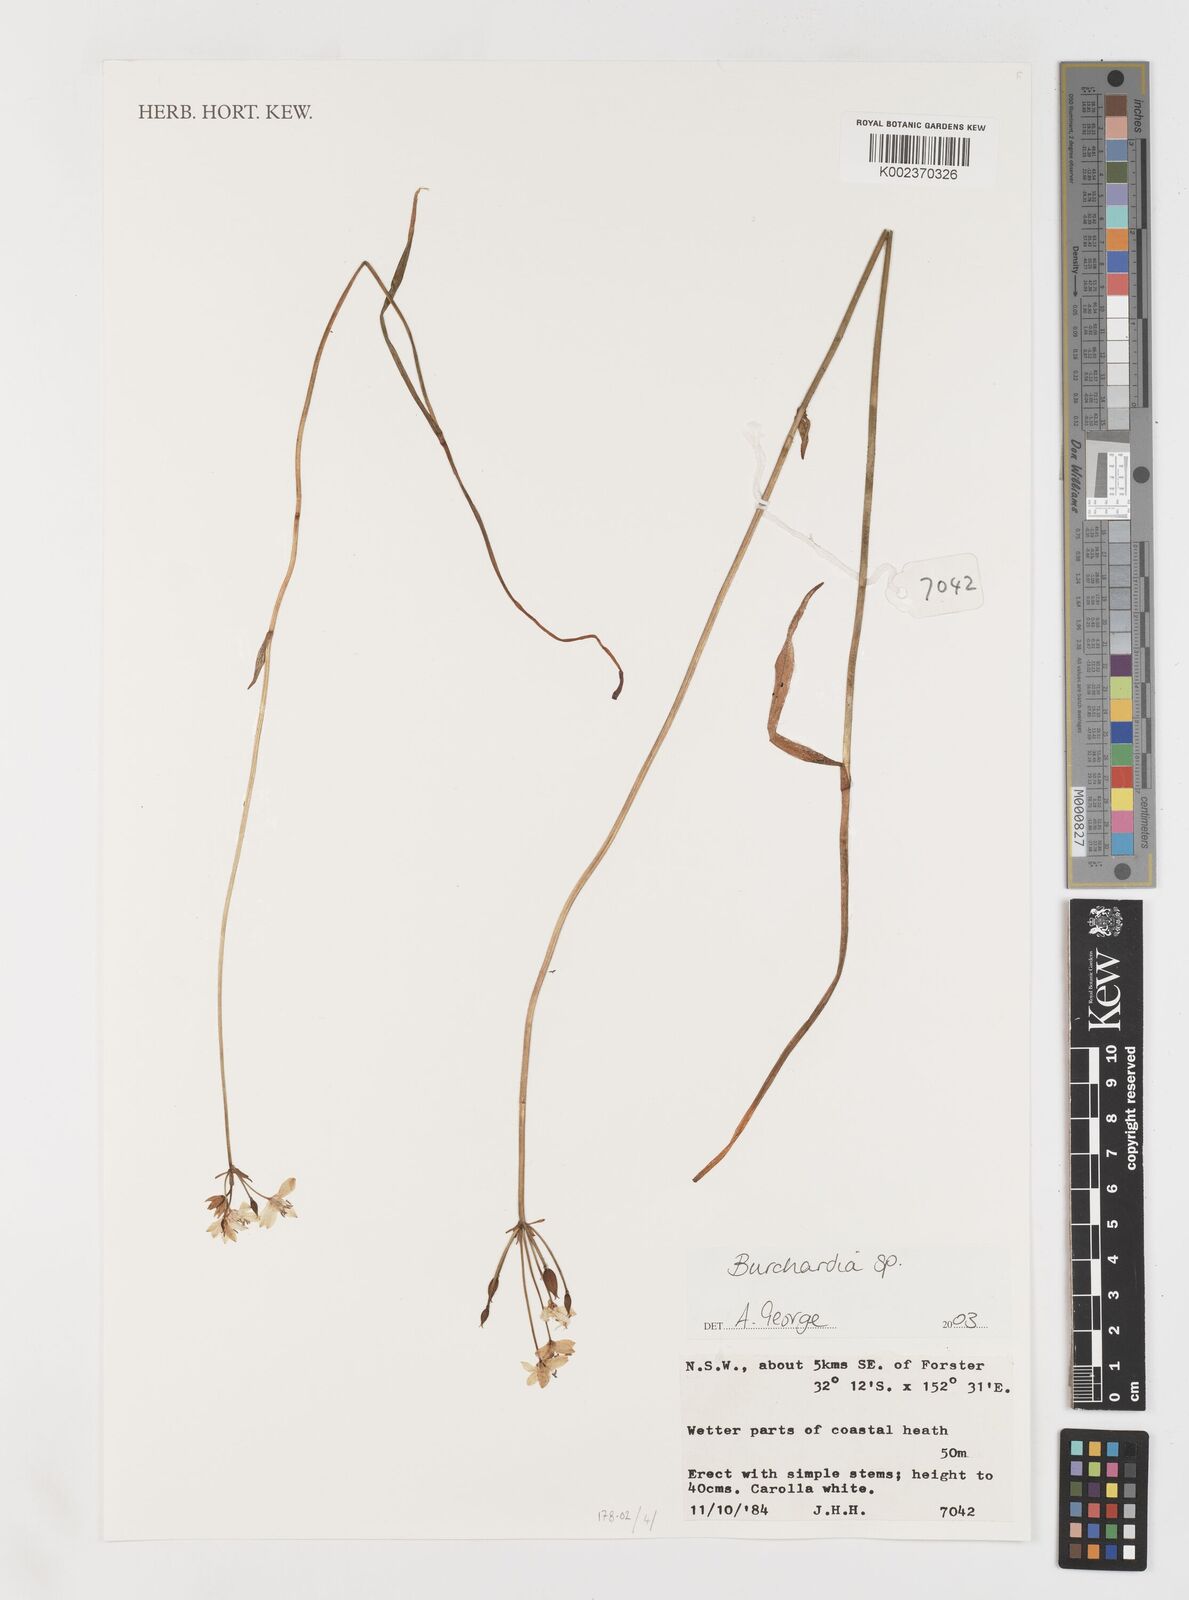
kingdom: Plantae
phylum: Tracheophyta
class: Liliopsida
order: Liliales
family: Colchicaceae
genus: Burchardia
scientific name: Burchardia
